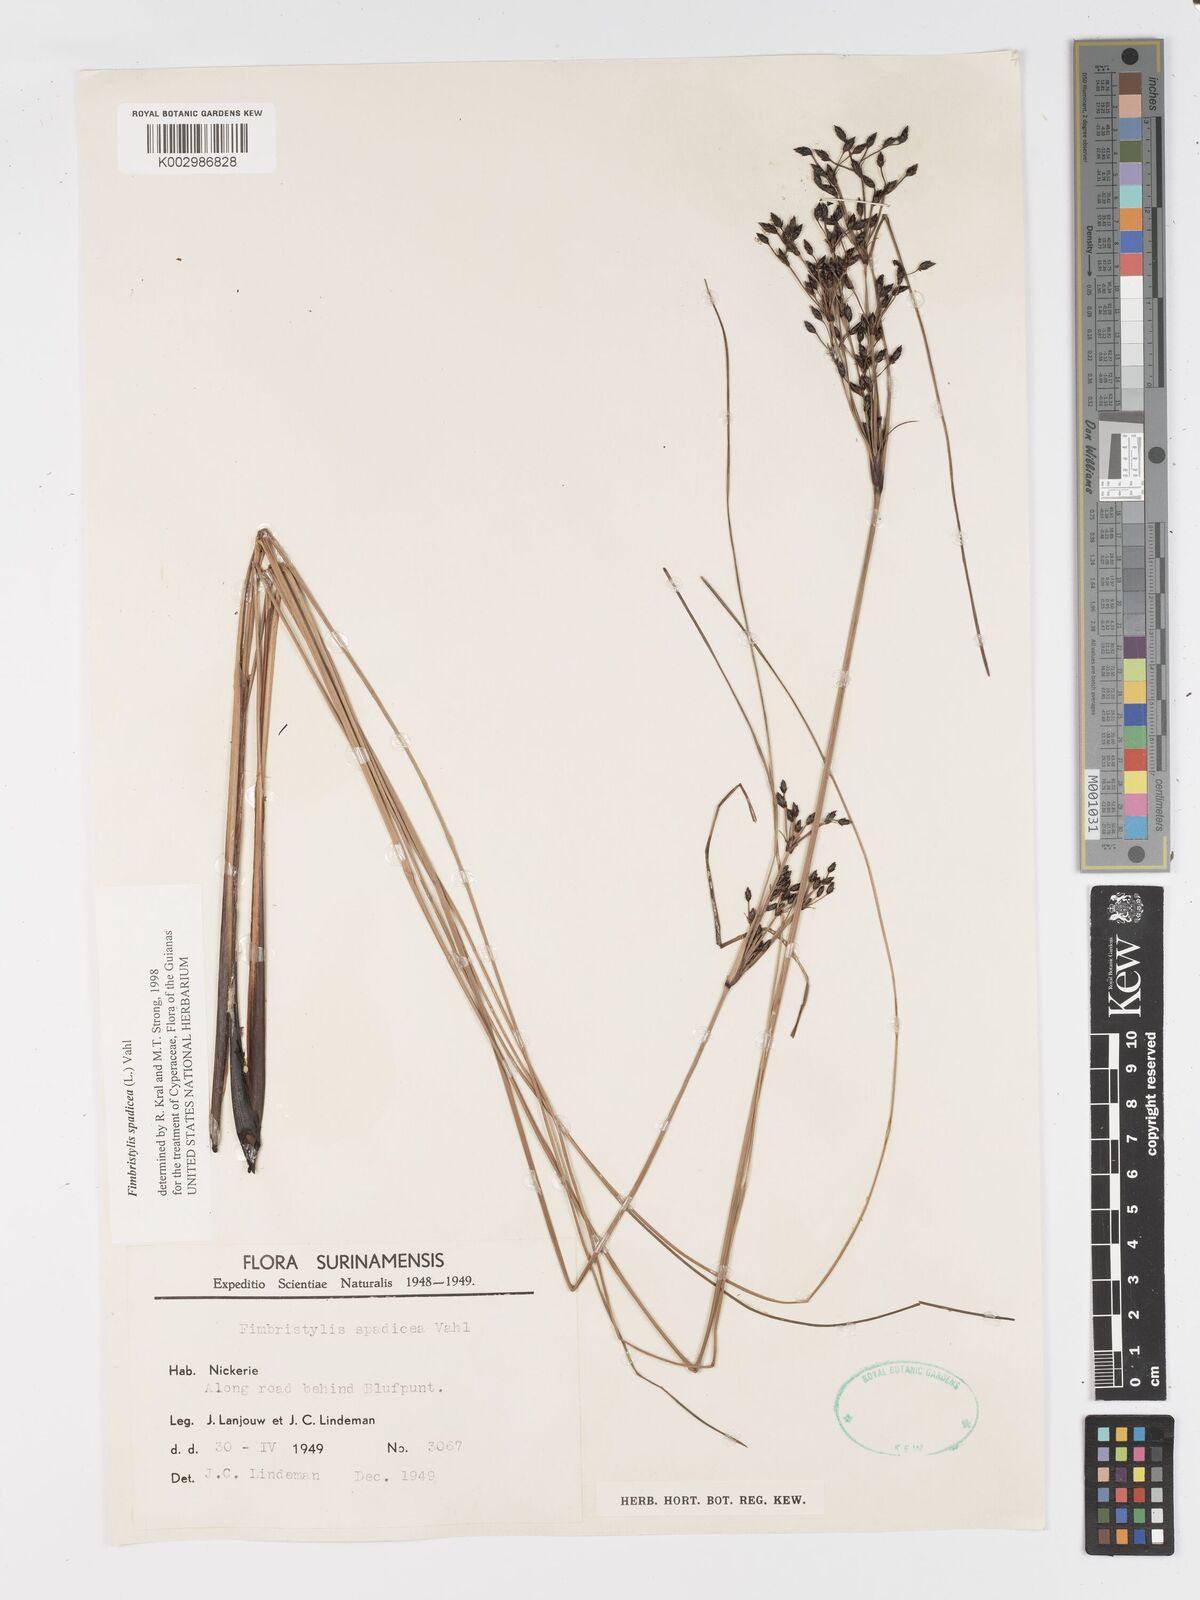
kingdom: Plantae
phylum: Tracheophyta
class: Liliopsida
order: Poales
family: Cyperaceae
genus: Fimbristylis
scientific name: Fimbristylis spadicea
